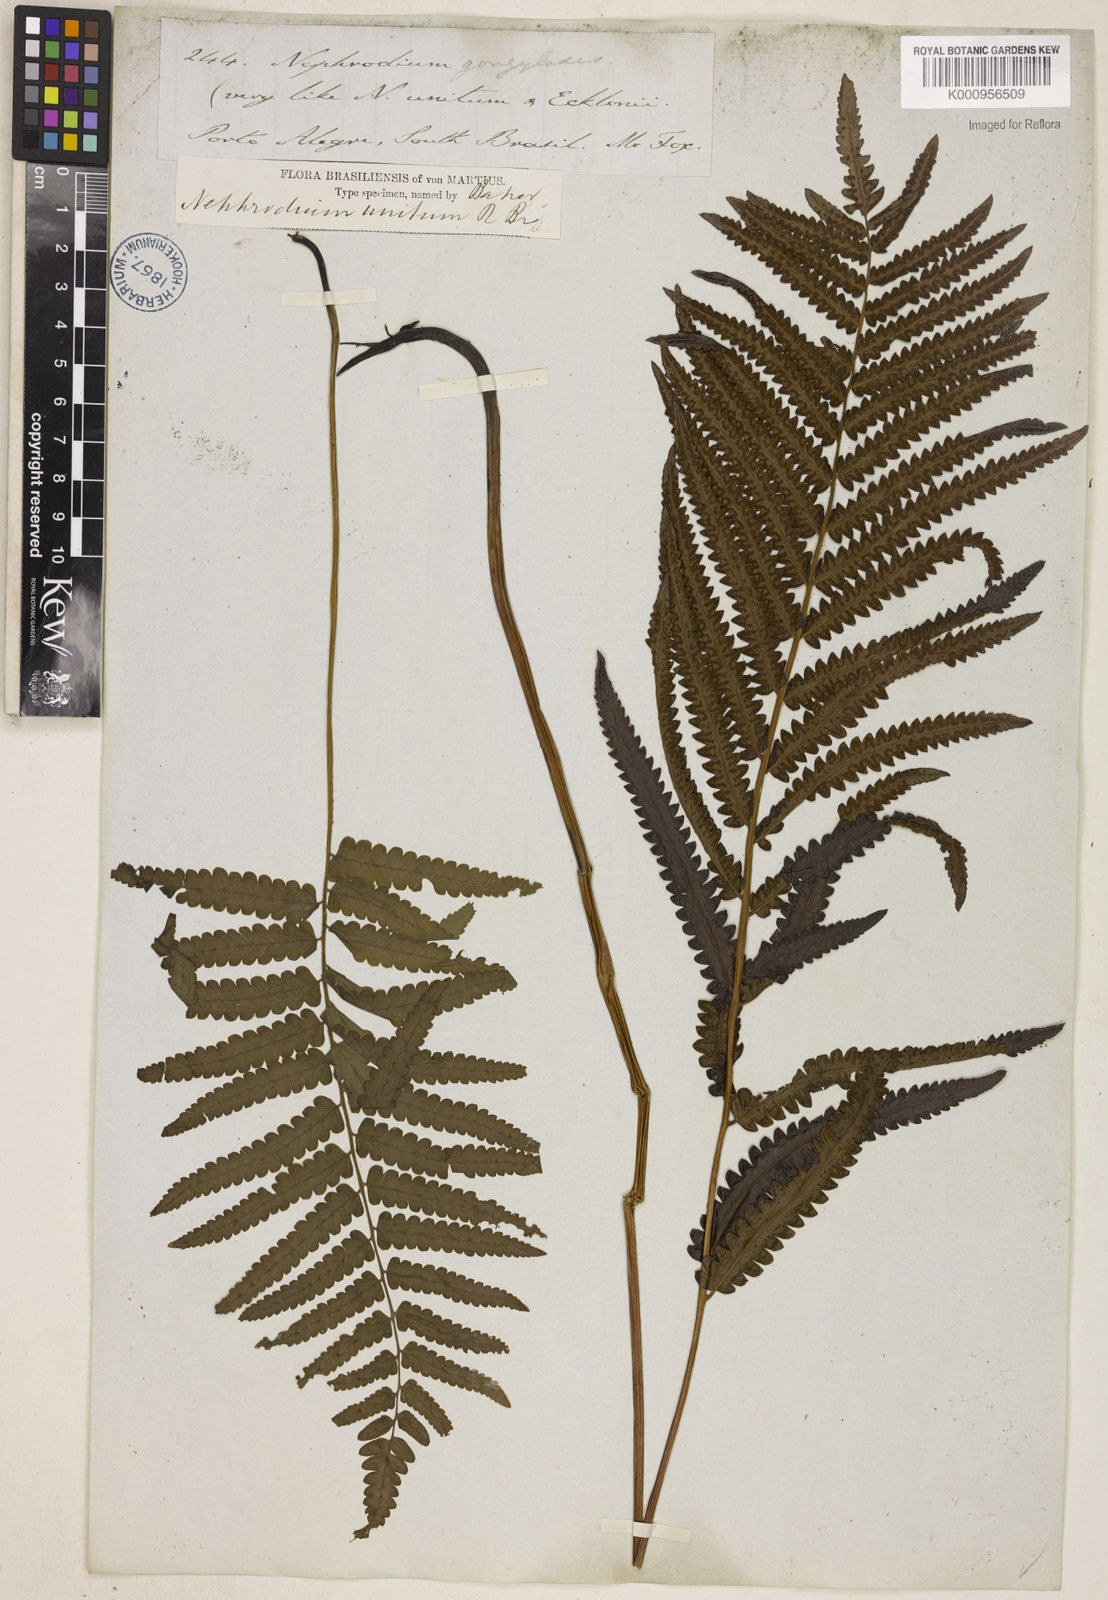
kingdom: Plantae
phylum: Tracheophyta
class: Polypodiopsida
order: Polypodiales
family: Thelypteridaceae
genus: Cyclosorus
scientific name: Cyclosorus interruptus
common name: Neke fern
